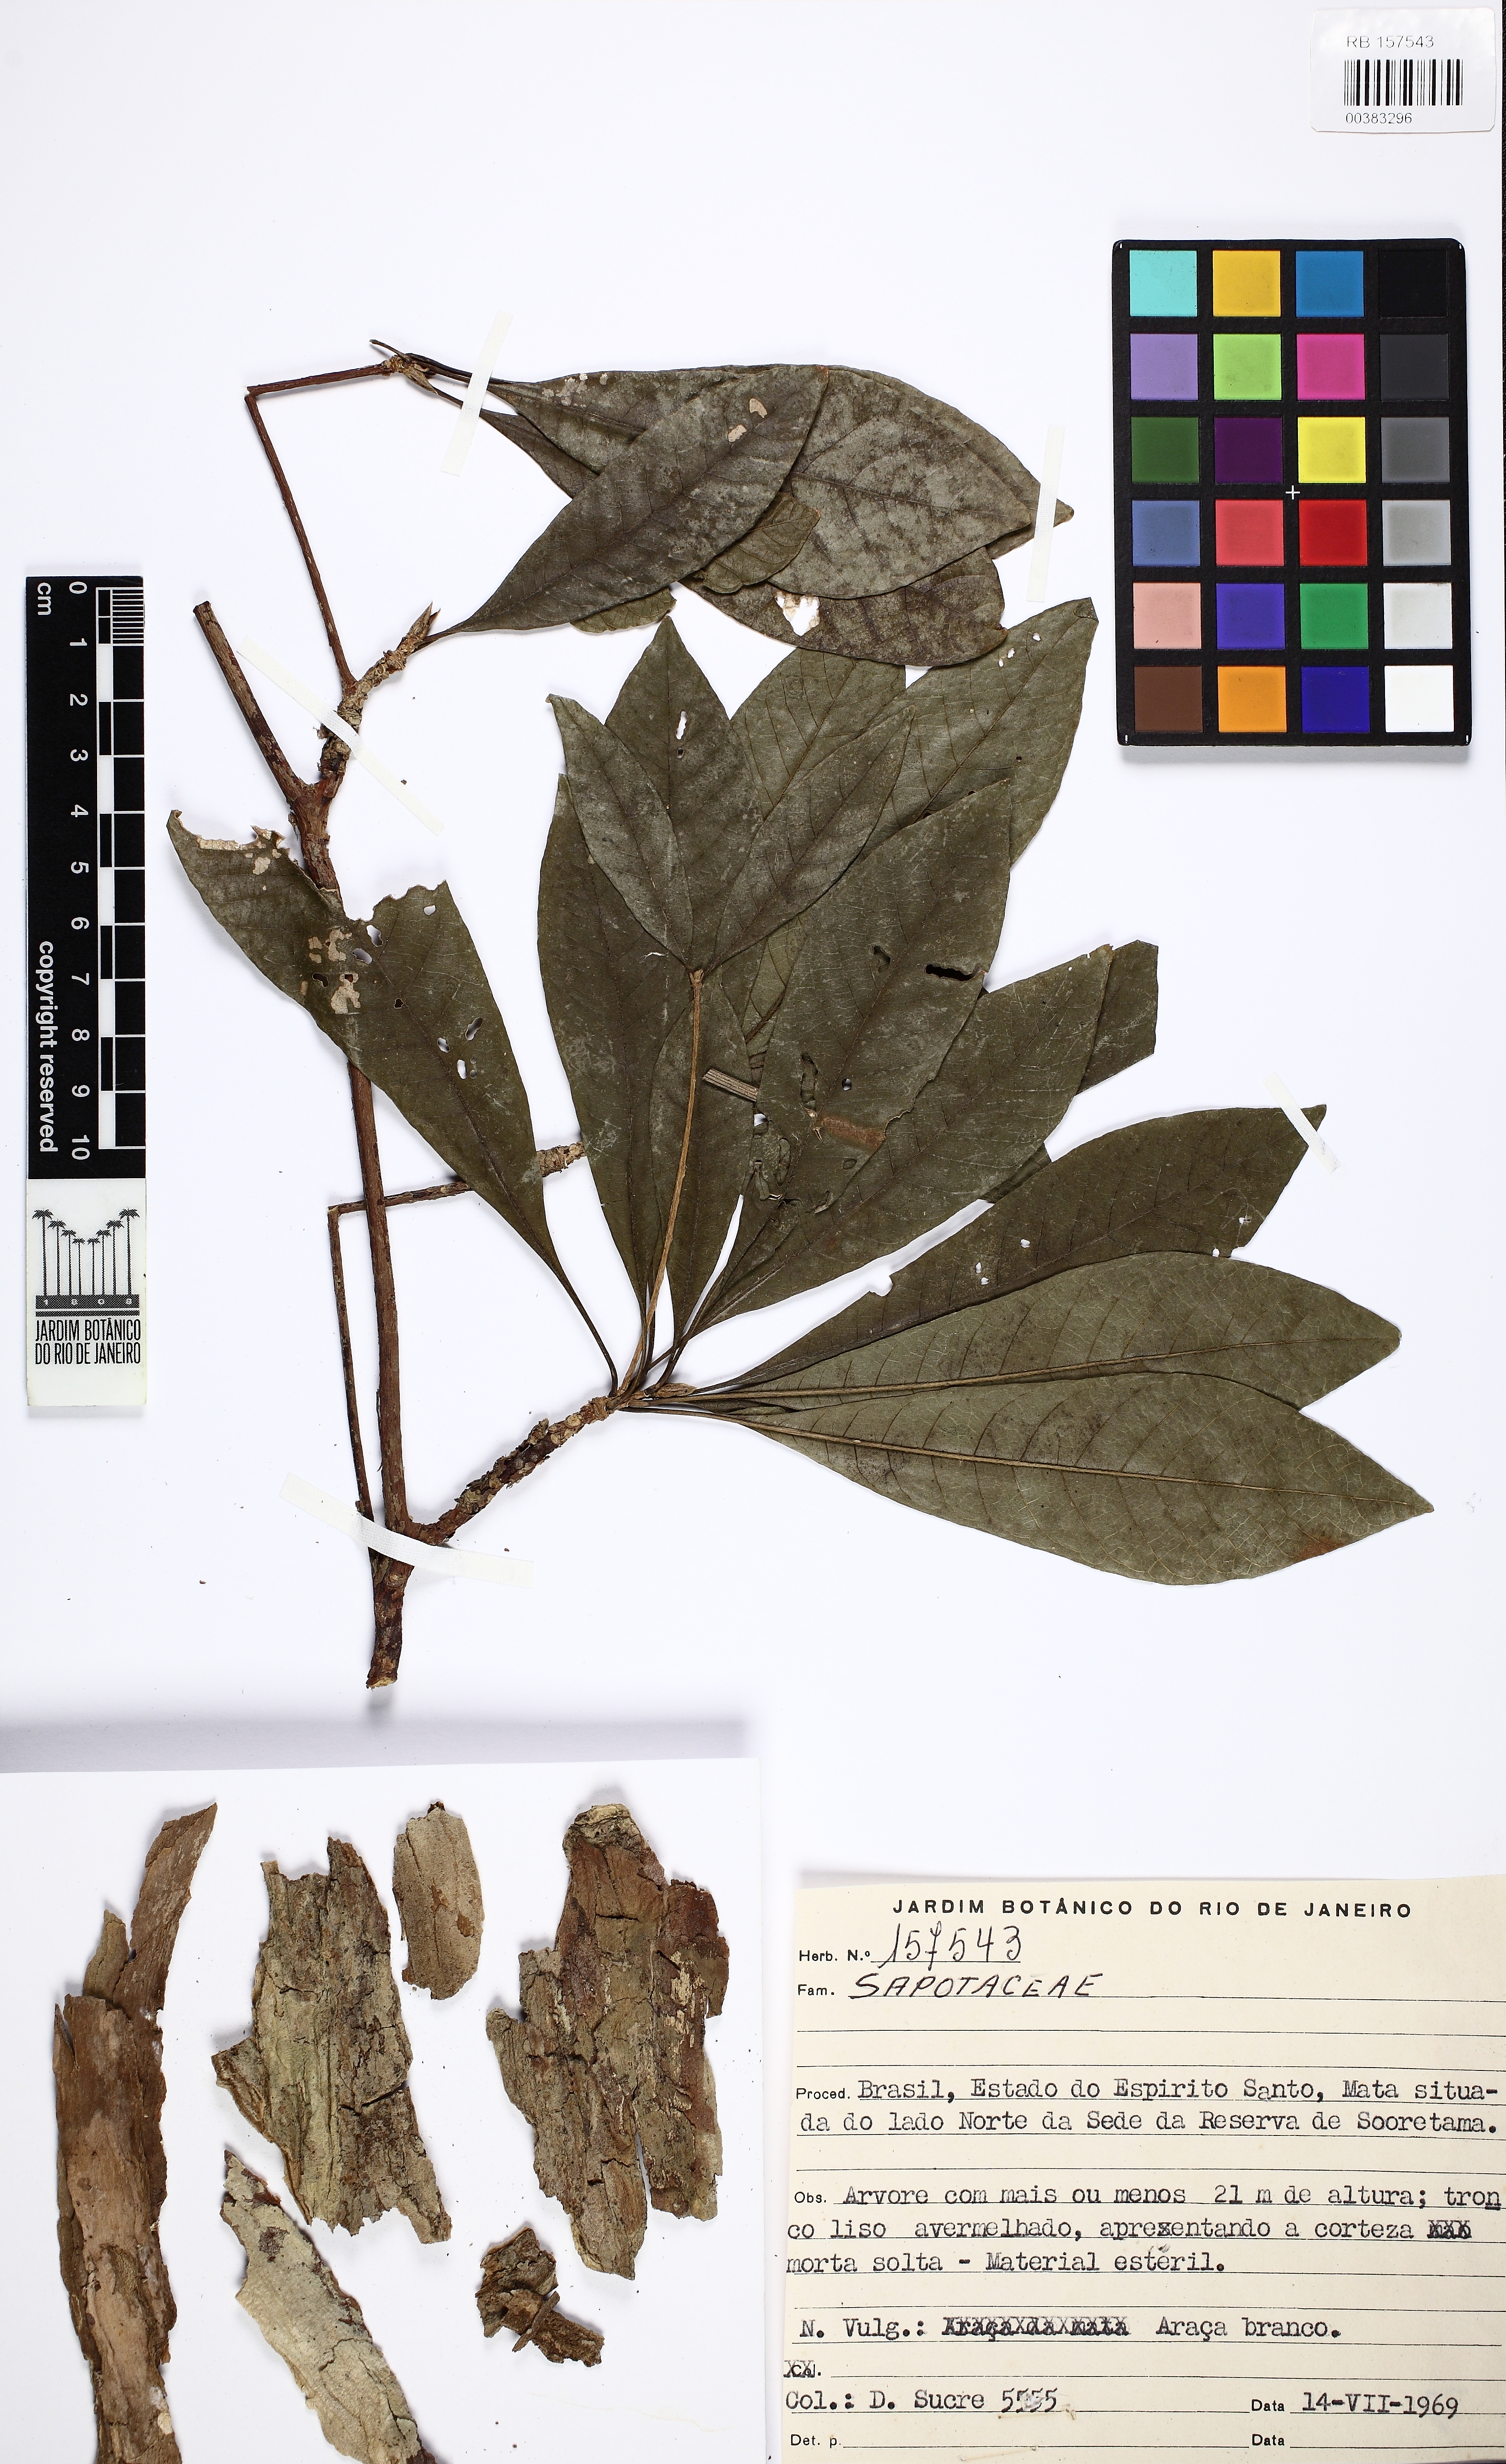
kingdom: Plantae
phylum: Tracheophyta
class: Magnoliopsida
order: Gentianales
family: Rubiaceae
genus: Alseis
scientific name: Alseis
